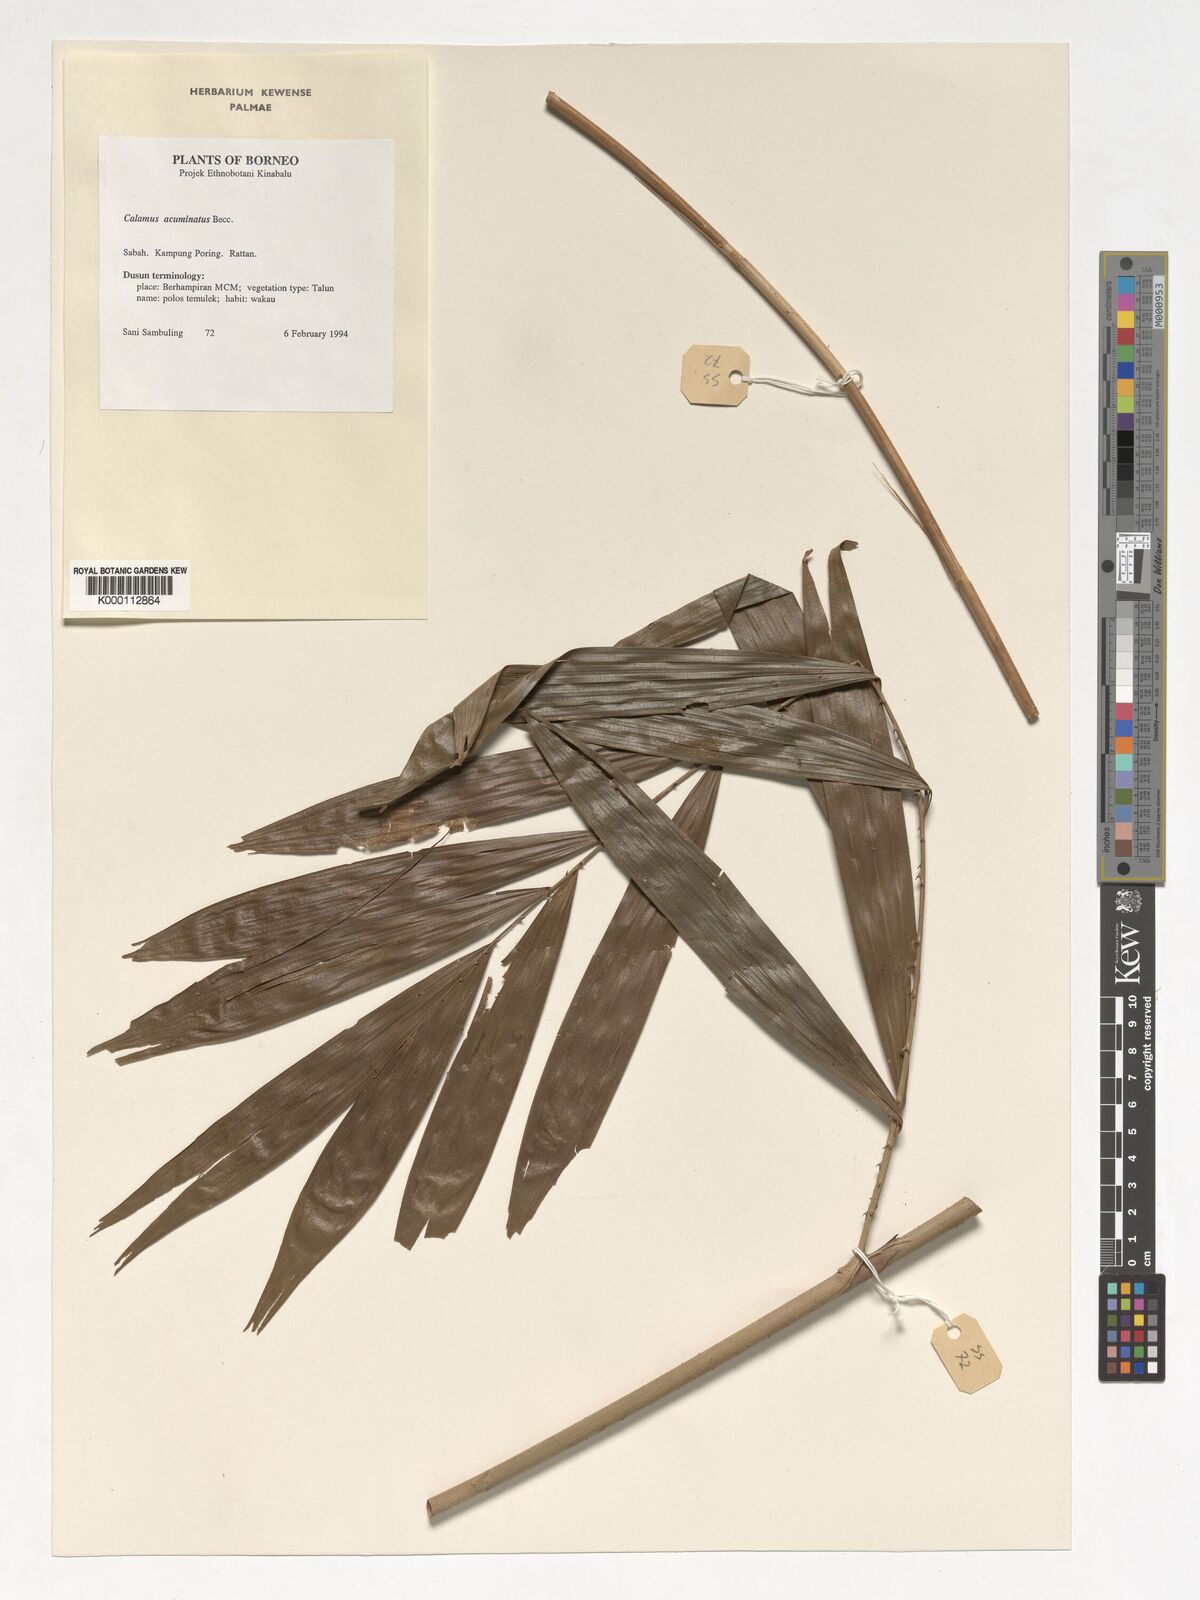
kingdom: Plantae
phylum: Tracheophyta
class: Liliopsida
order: Arecales
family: Arecaceae
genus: Calamus
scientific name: Calamus javensis
